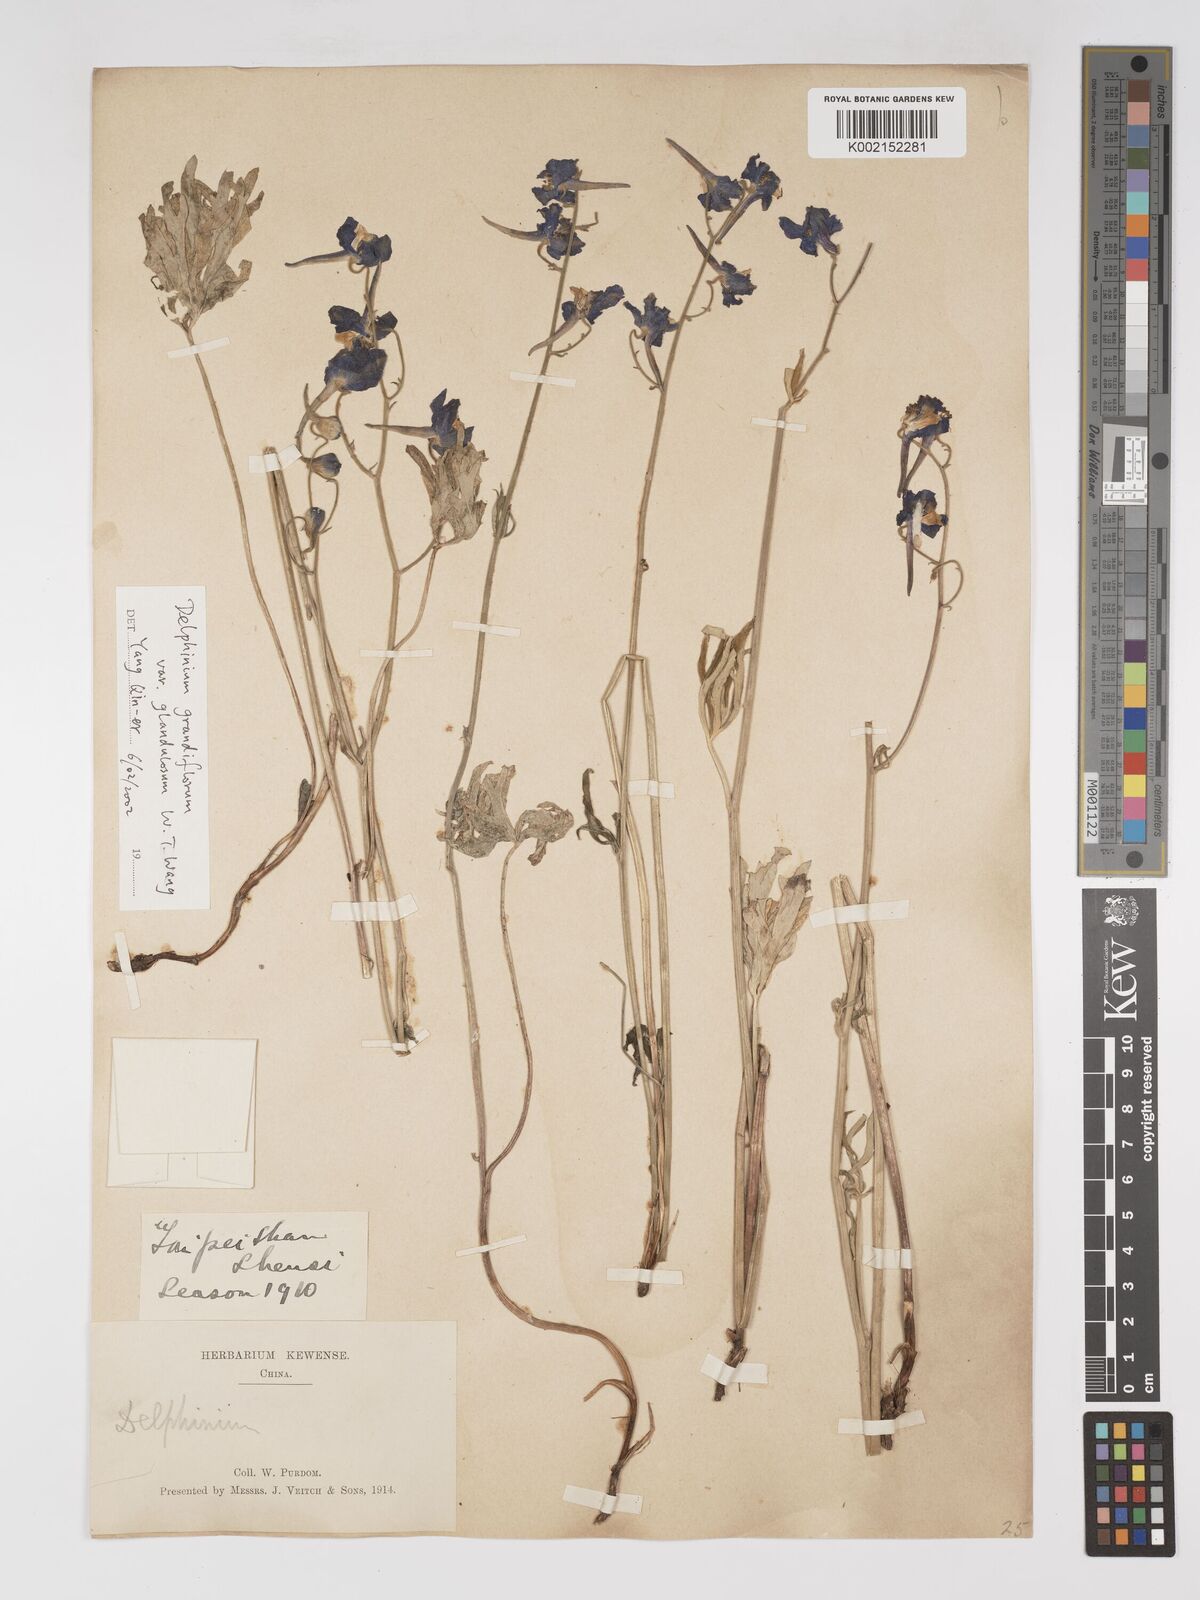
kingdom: Plantae
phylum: Tracheophyta
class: Magnoliopsida
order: Ranunculales
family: Ranunculaceae
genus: Delphinium
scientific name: Delphinium grandiflorum
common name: Siberian larkspur
